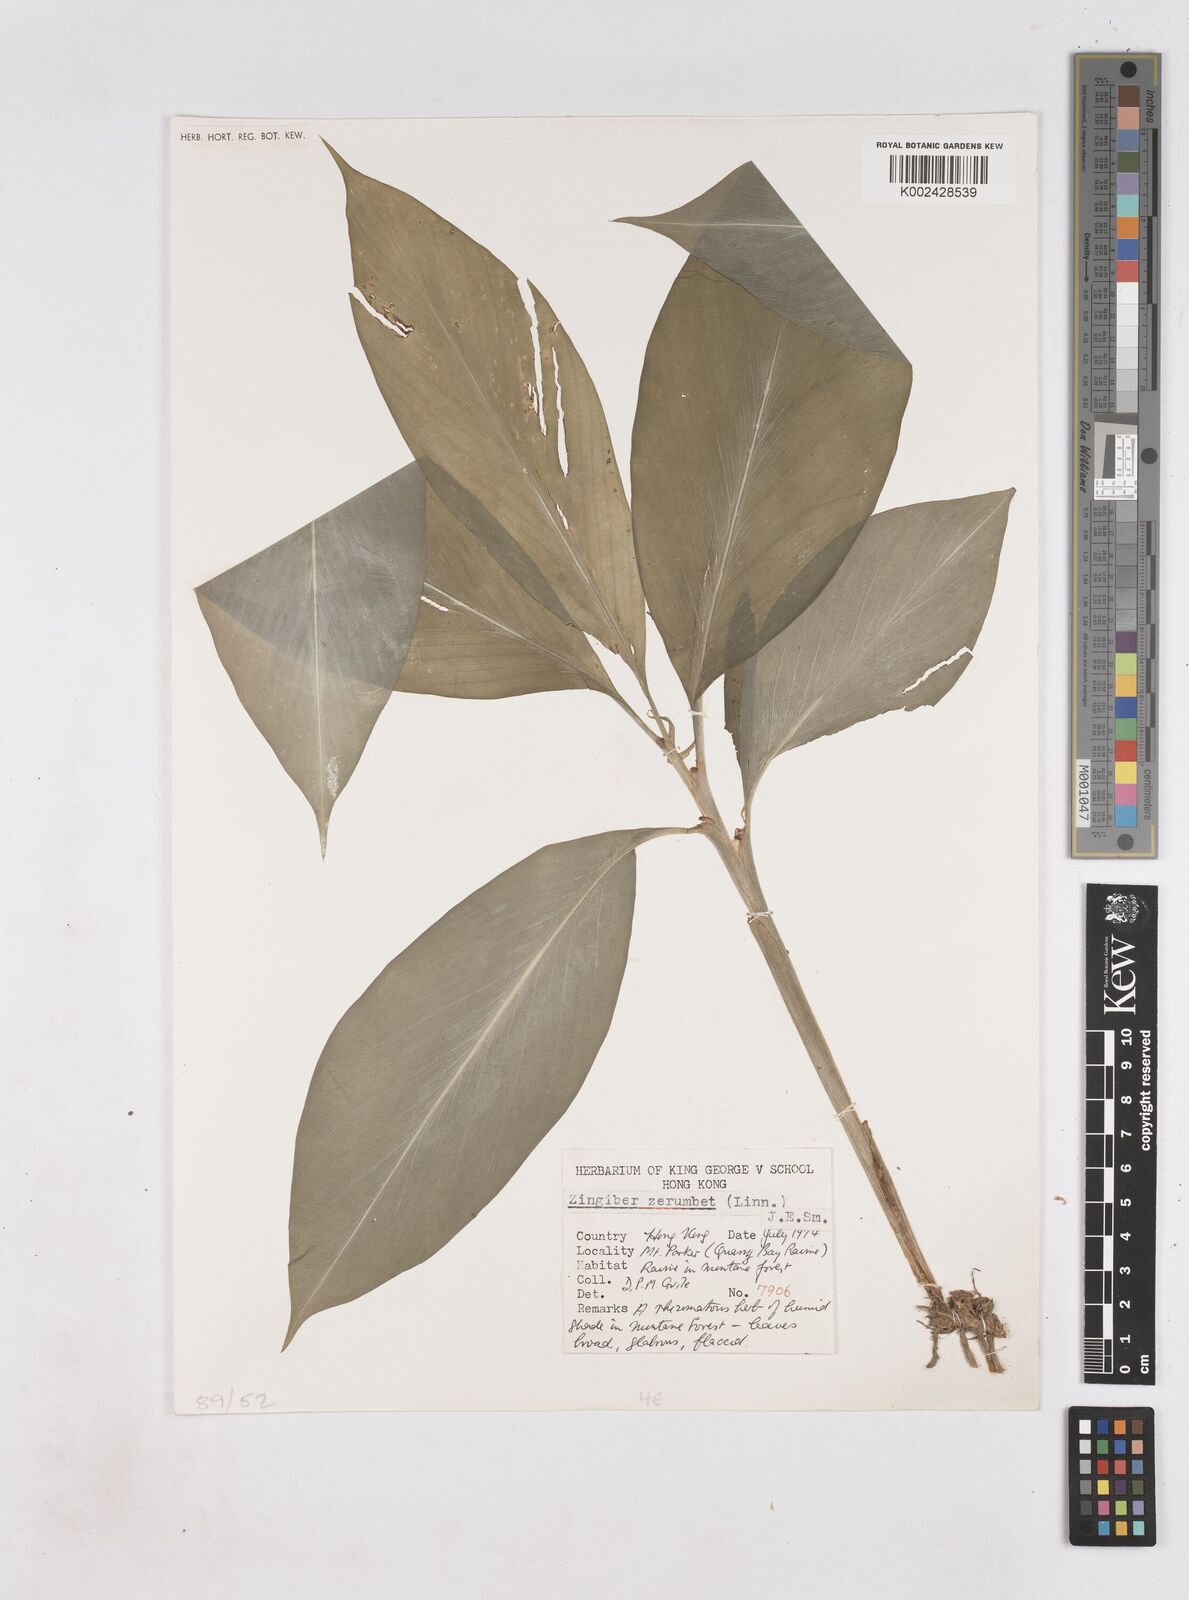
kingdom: Plantae
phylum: Tracheophyta
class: Liliopsida
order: Zingiberales
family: Zingiberaceae
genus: Zingiber
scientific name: Zingiber zerumbet
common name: Bitter ginger
